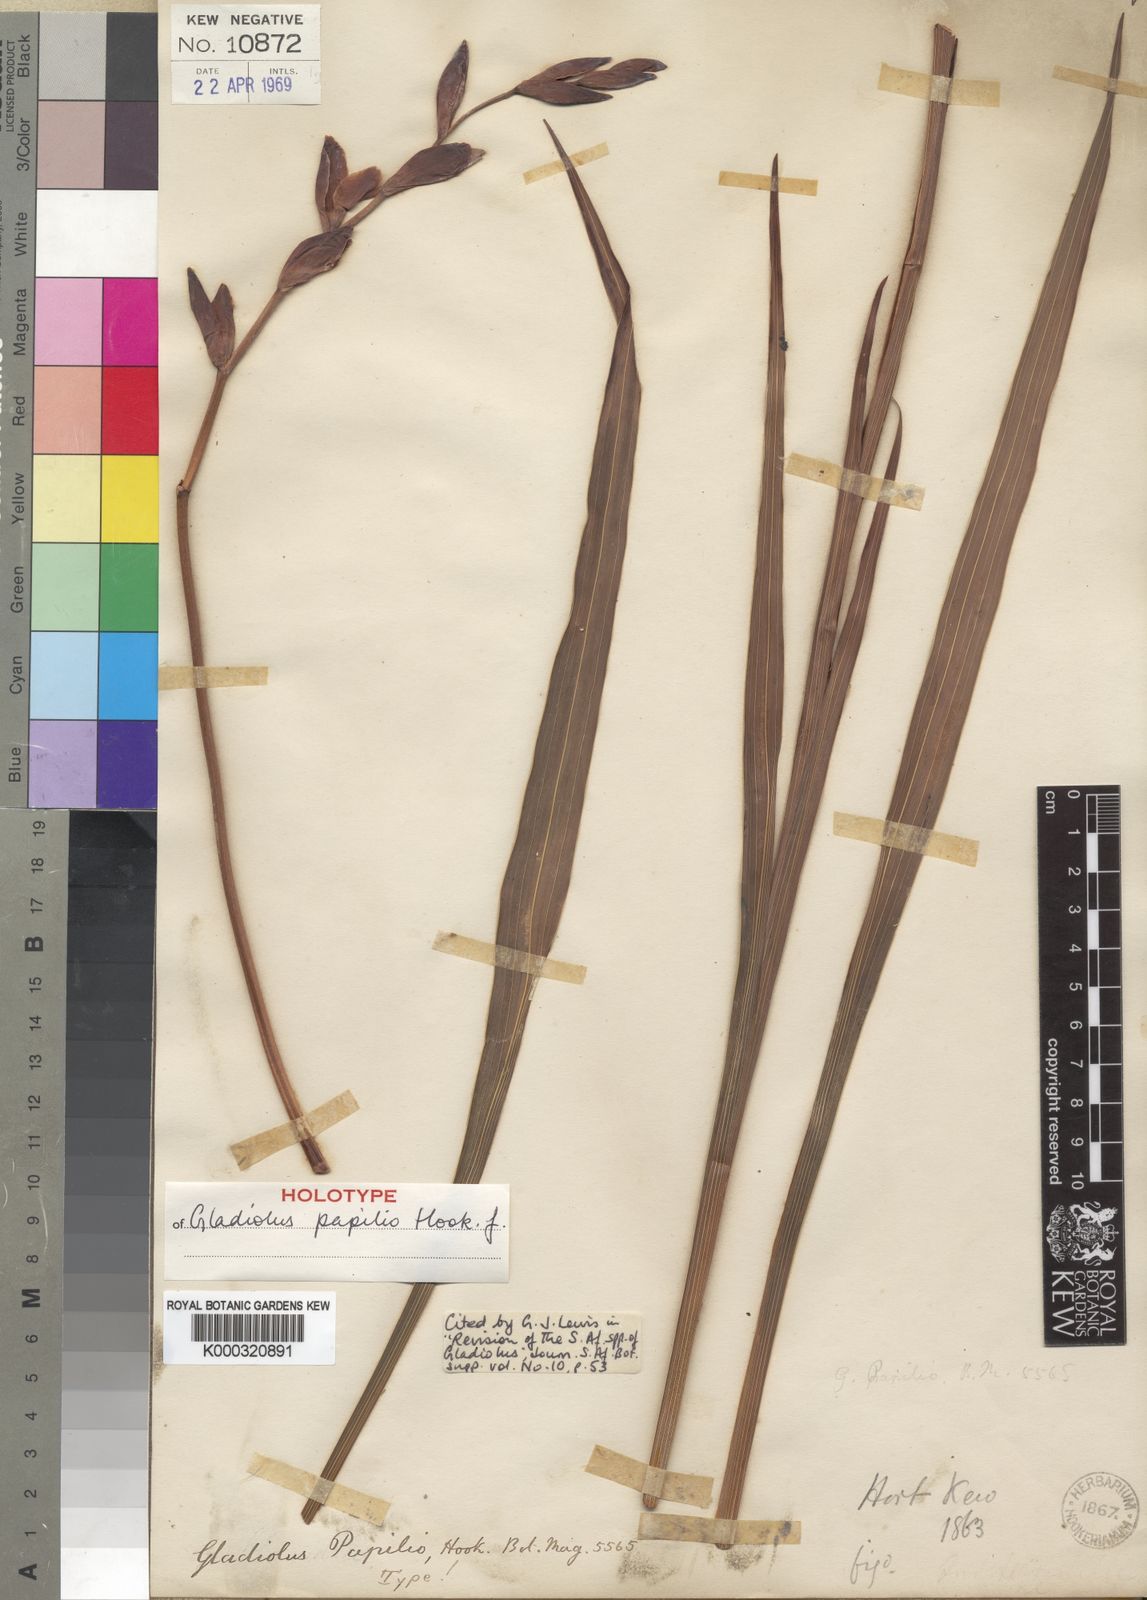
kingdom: Plantae
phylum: Tracheophyta
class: Liliopsida
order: Asparagales
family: Iridaceae
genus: Gladiolus
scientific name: Gladiolus papilio
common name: Goldblotch gladiolus
